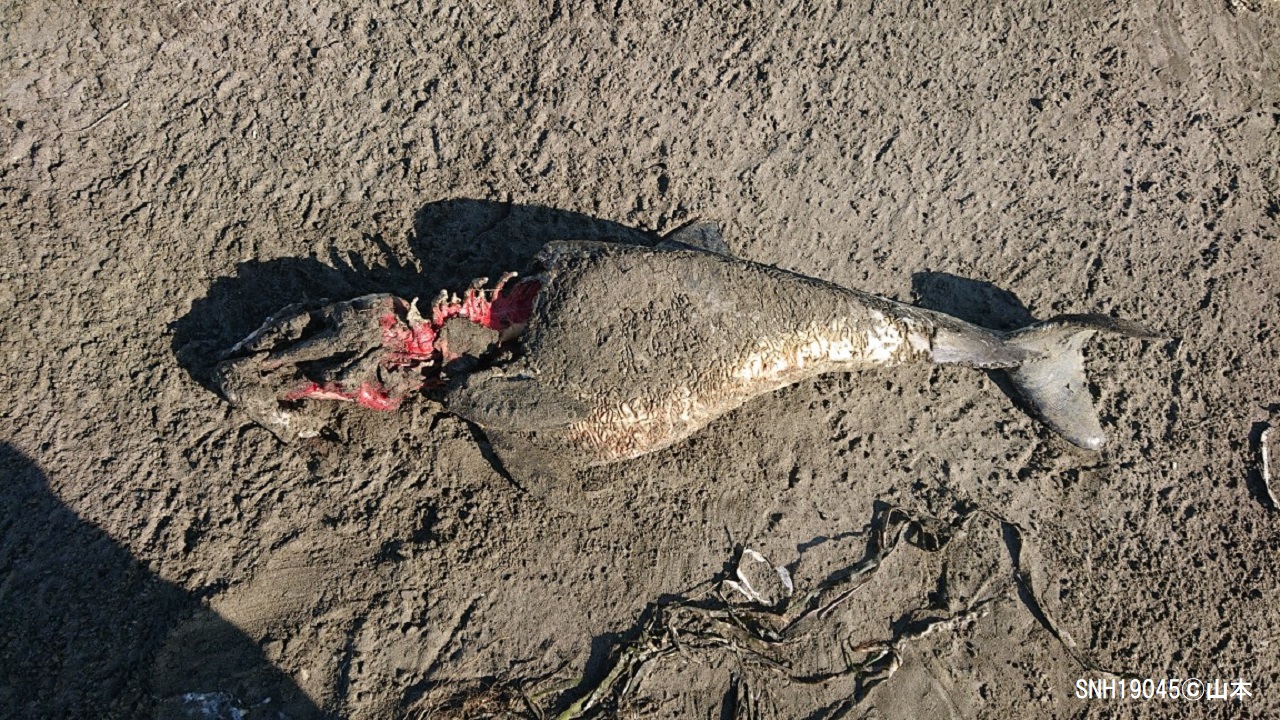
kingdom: Animalia
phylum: Chordata
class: Mammalia
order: Cetacea
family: Phocoenidae
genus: Phocoena
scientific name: Phocoena phocoena
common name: Harbour porpoise
